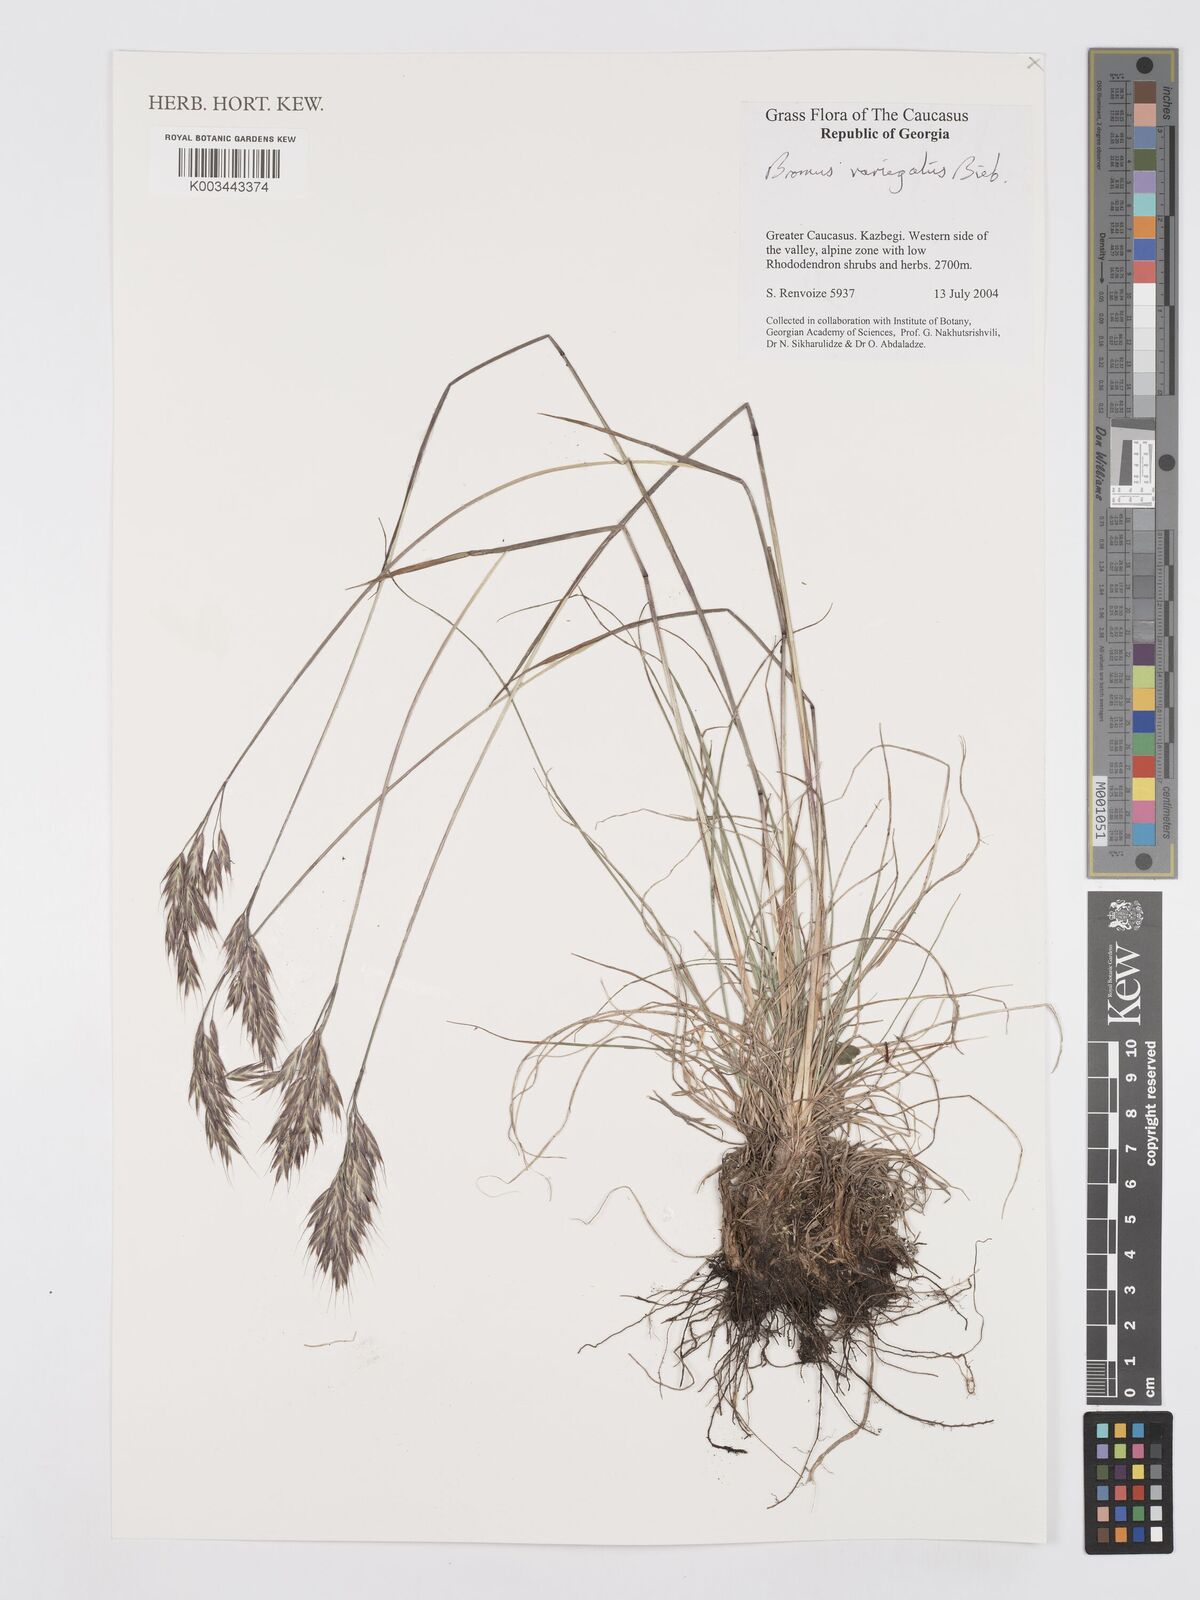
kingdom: Plantae
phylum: Tracheophyta
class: Liliopsida
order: Poales
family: Poaceae
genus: Bromus
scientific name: Bromus variegatus
